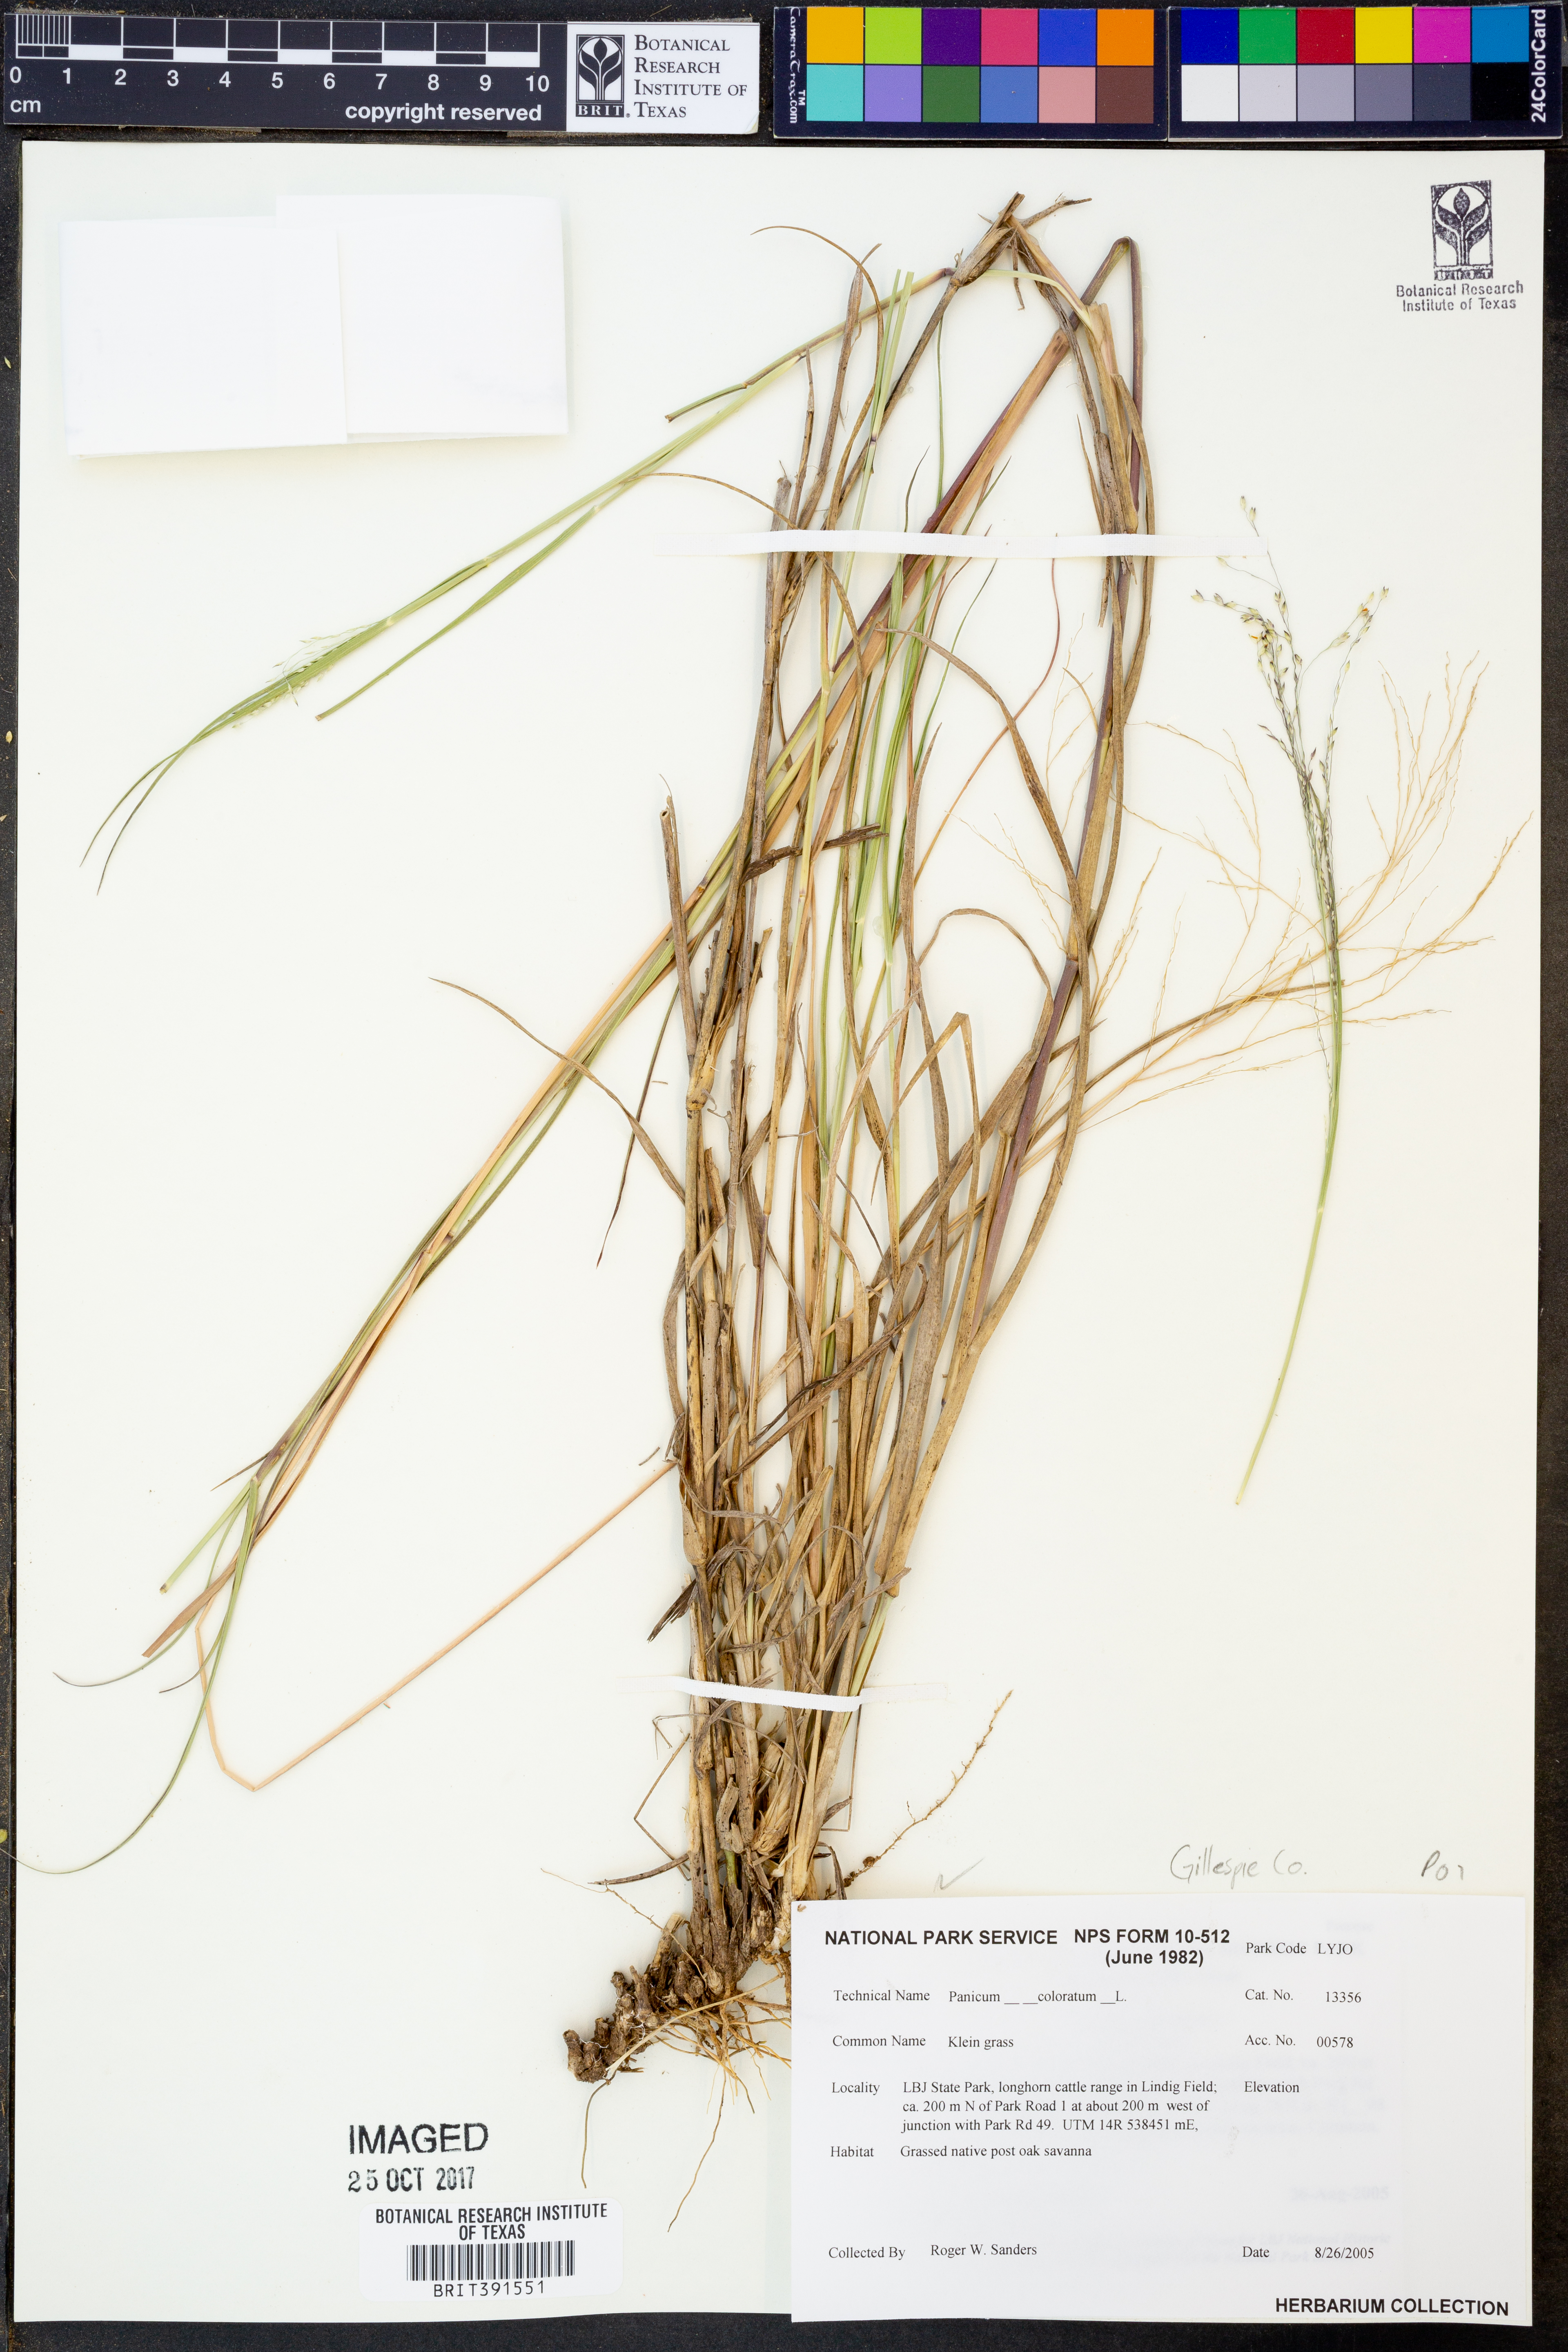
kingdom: Plantae
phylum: Tracheophyta
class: Liliopsida
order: Poales
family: Poaceae
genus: Panicum
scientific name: Panicum coloratum
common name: Kleingrass
